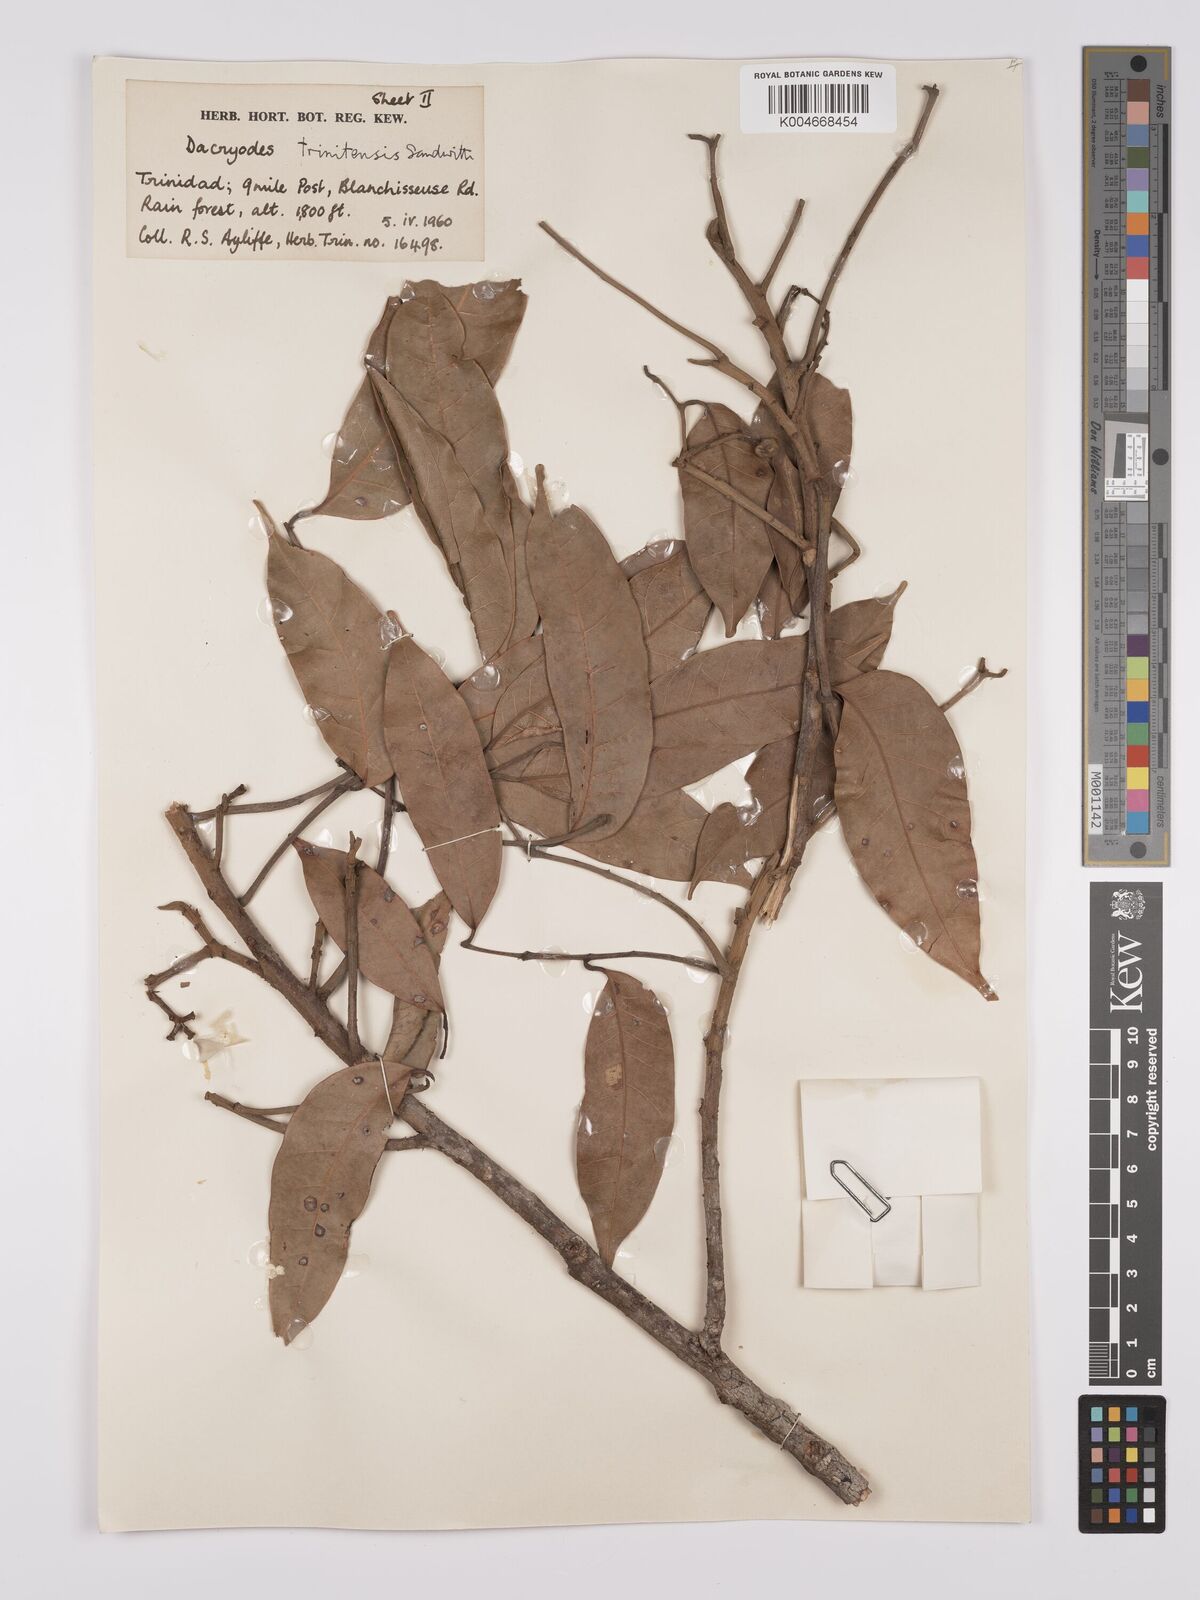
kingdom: Plantae
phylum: Tracheophyta
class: Magnoliopsida
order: Sapindales
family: Burseraceae
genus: Dacryodes
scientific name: Dacryodes belemensis
